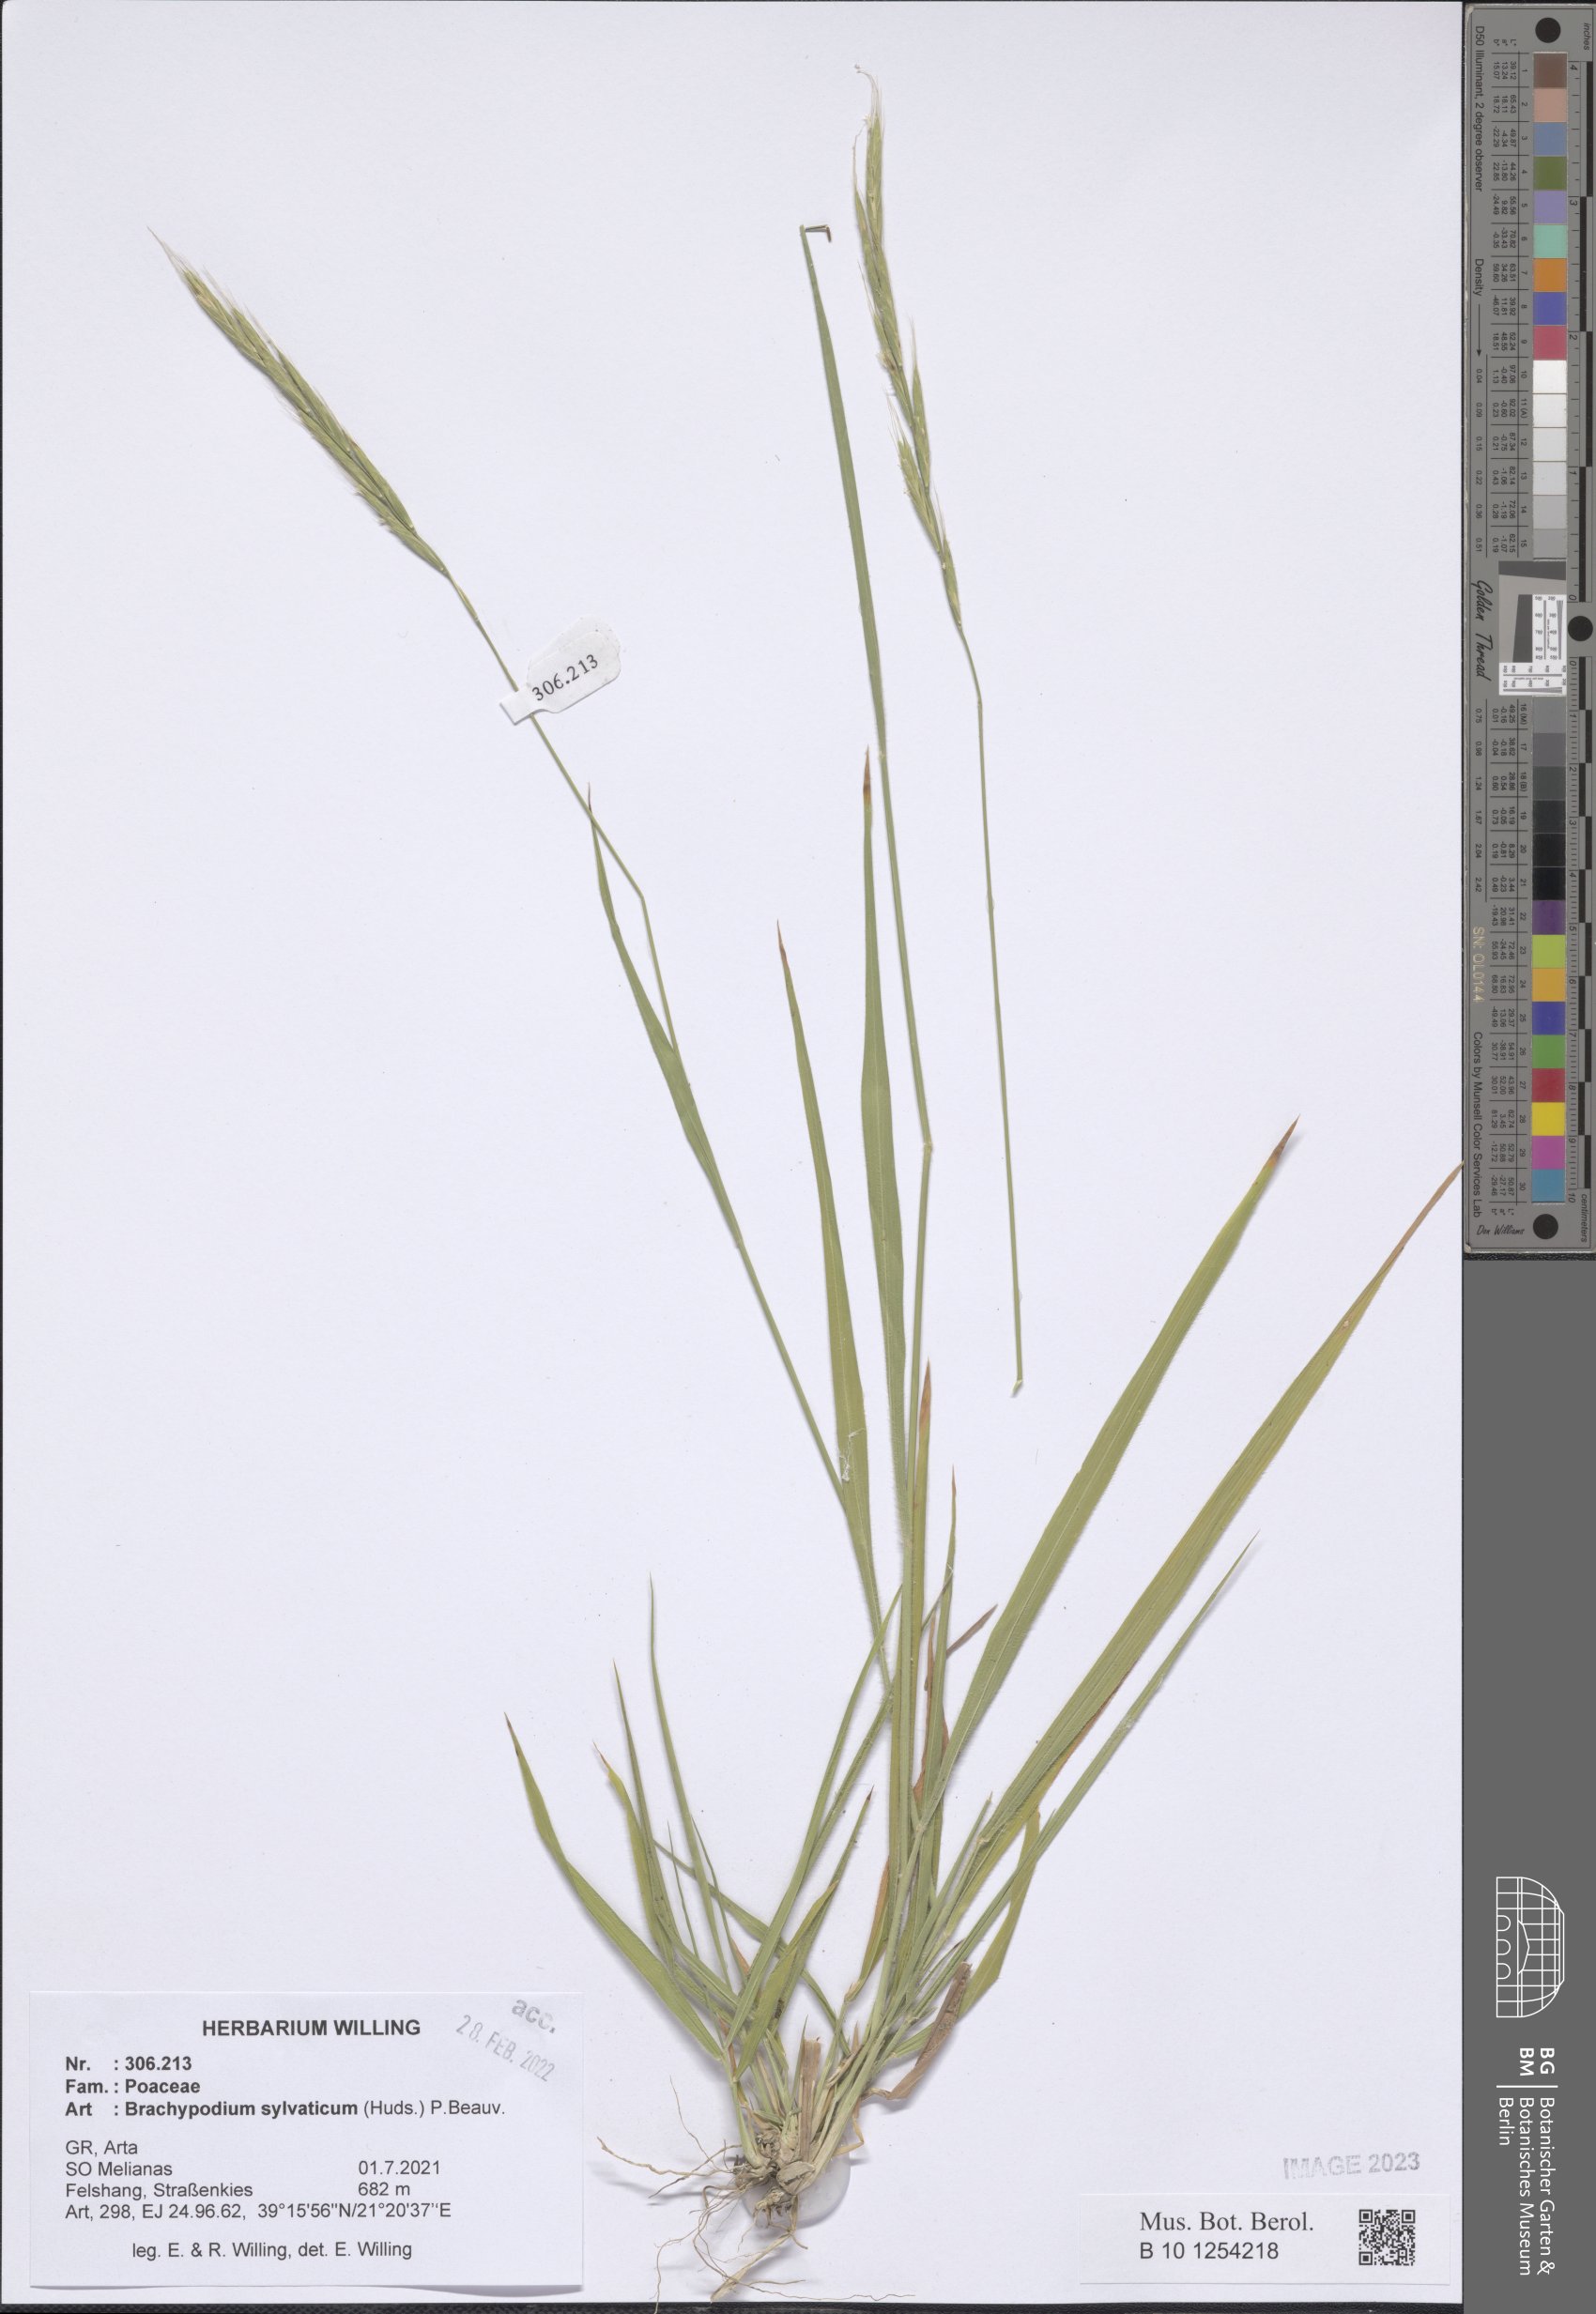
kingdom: Plantae
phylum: Tracheophyta
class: Liliopsida
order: Poales
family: Poaceae
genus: Brachypodium
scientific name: Brachypodium sylvaticum
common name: False-brome
